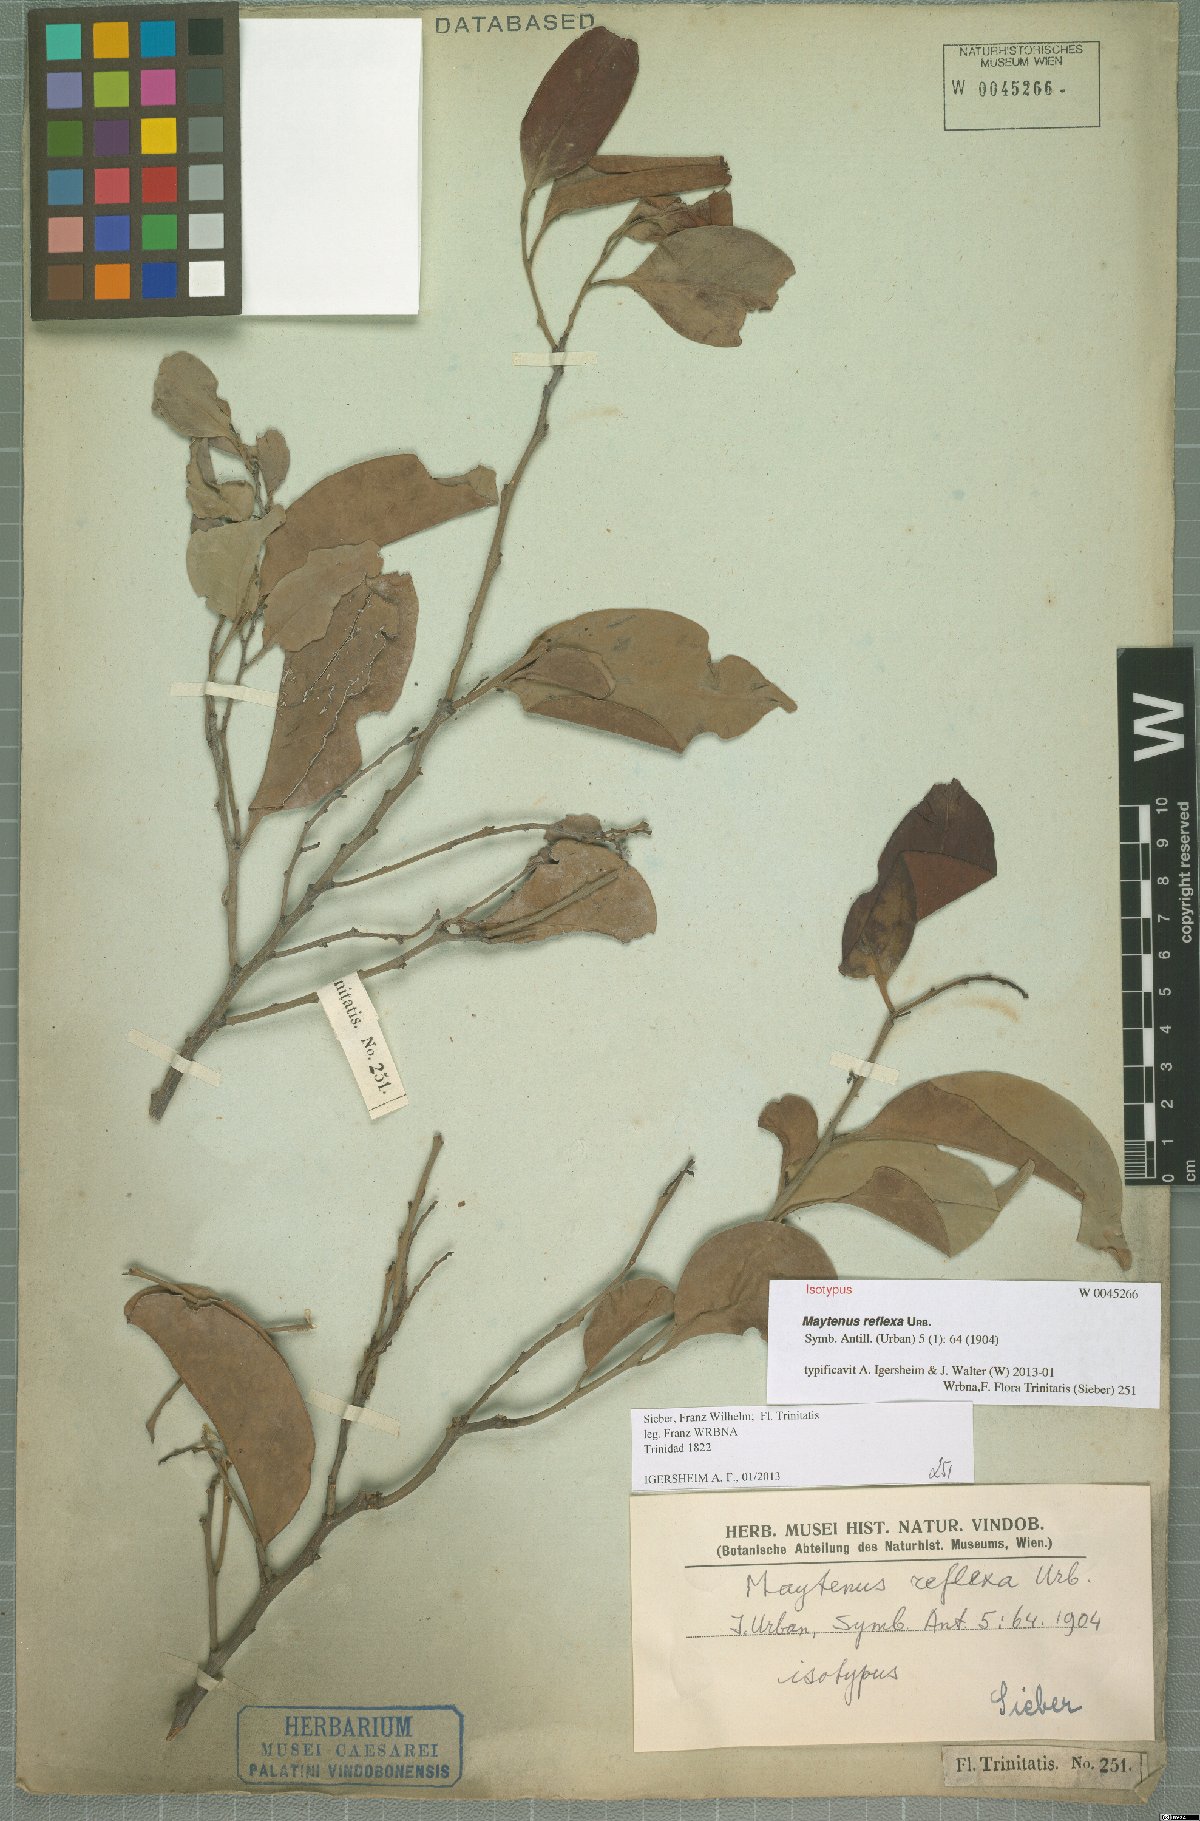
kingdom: Plantae
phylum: Tracheophyta
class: Magnoliopsida
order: Celastrales
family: Celastraceae
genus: Monteverdia
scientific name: Monteverdia reflexa
